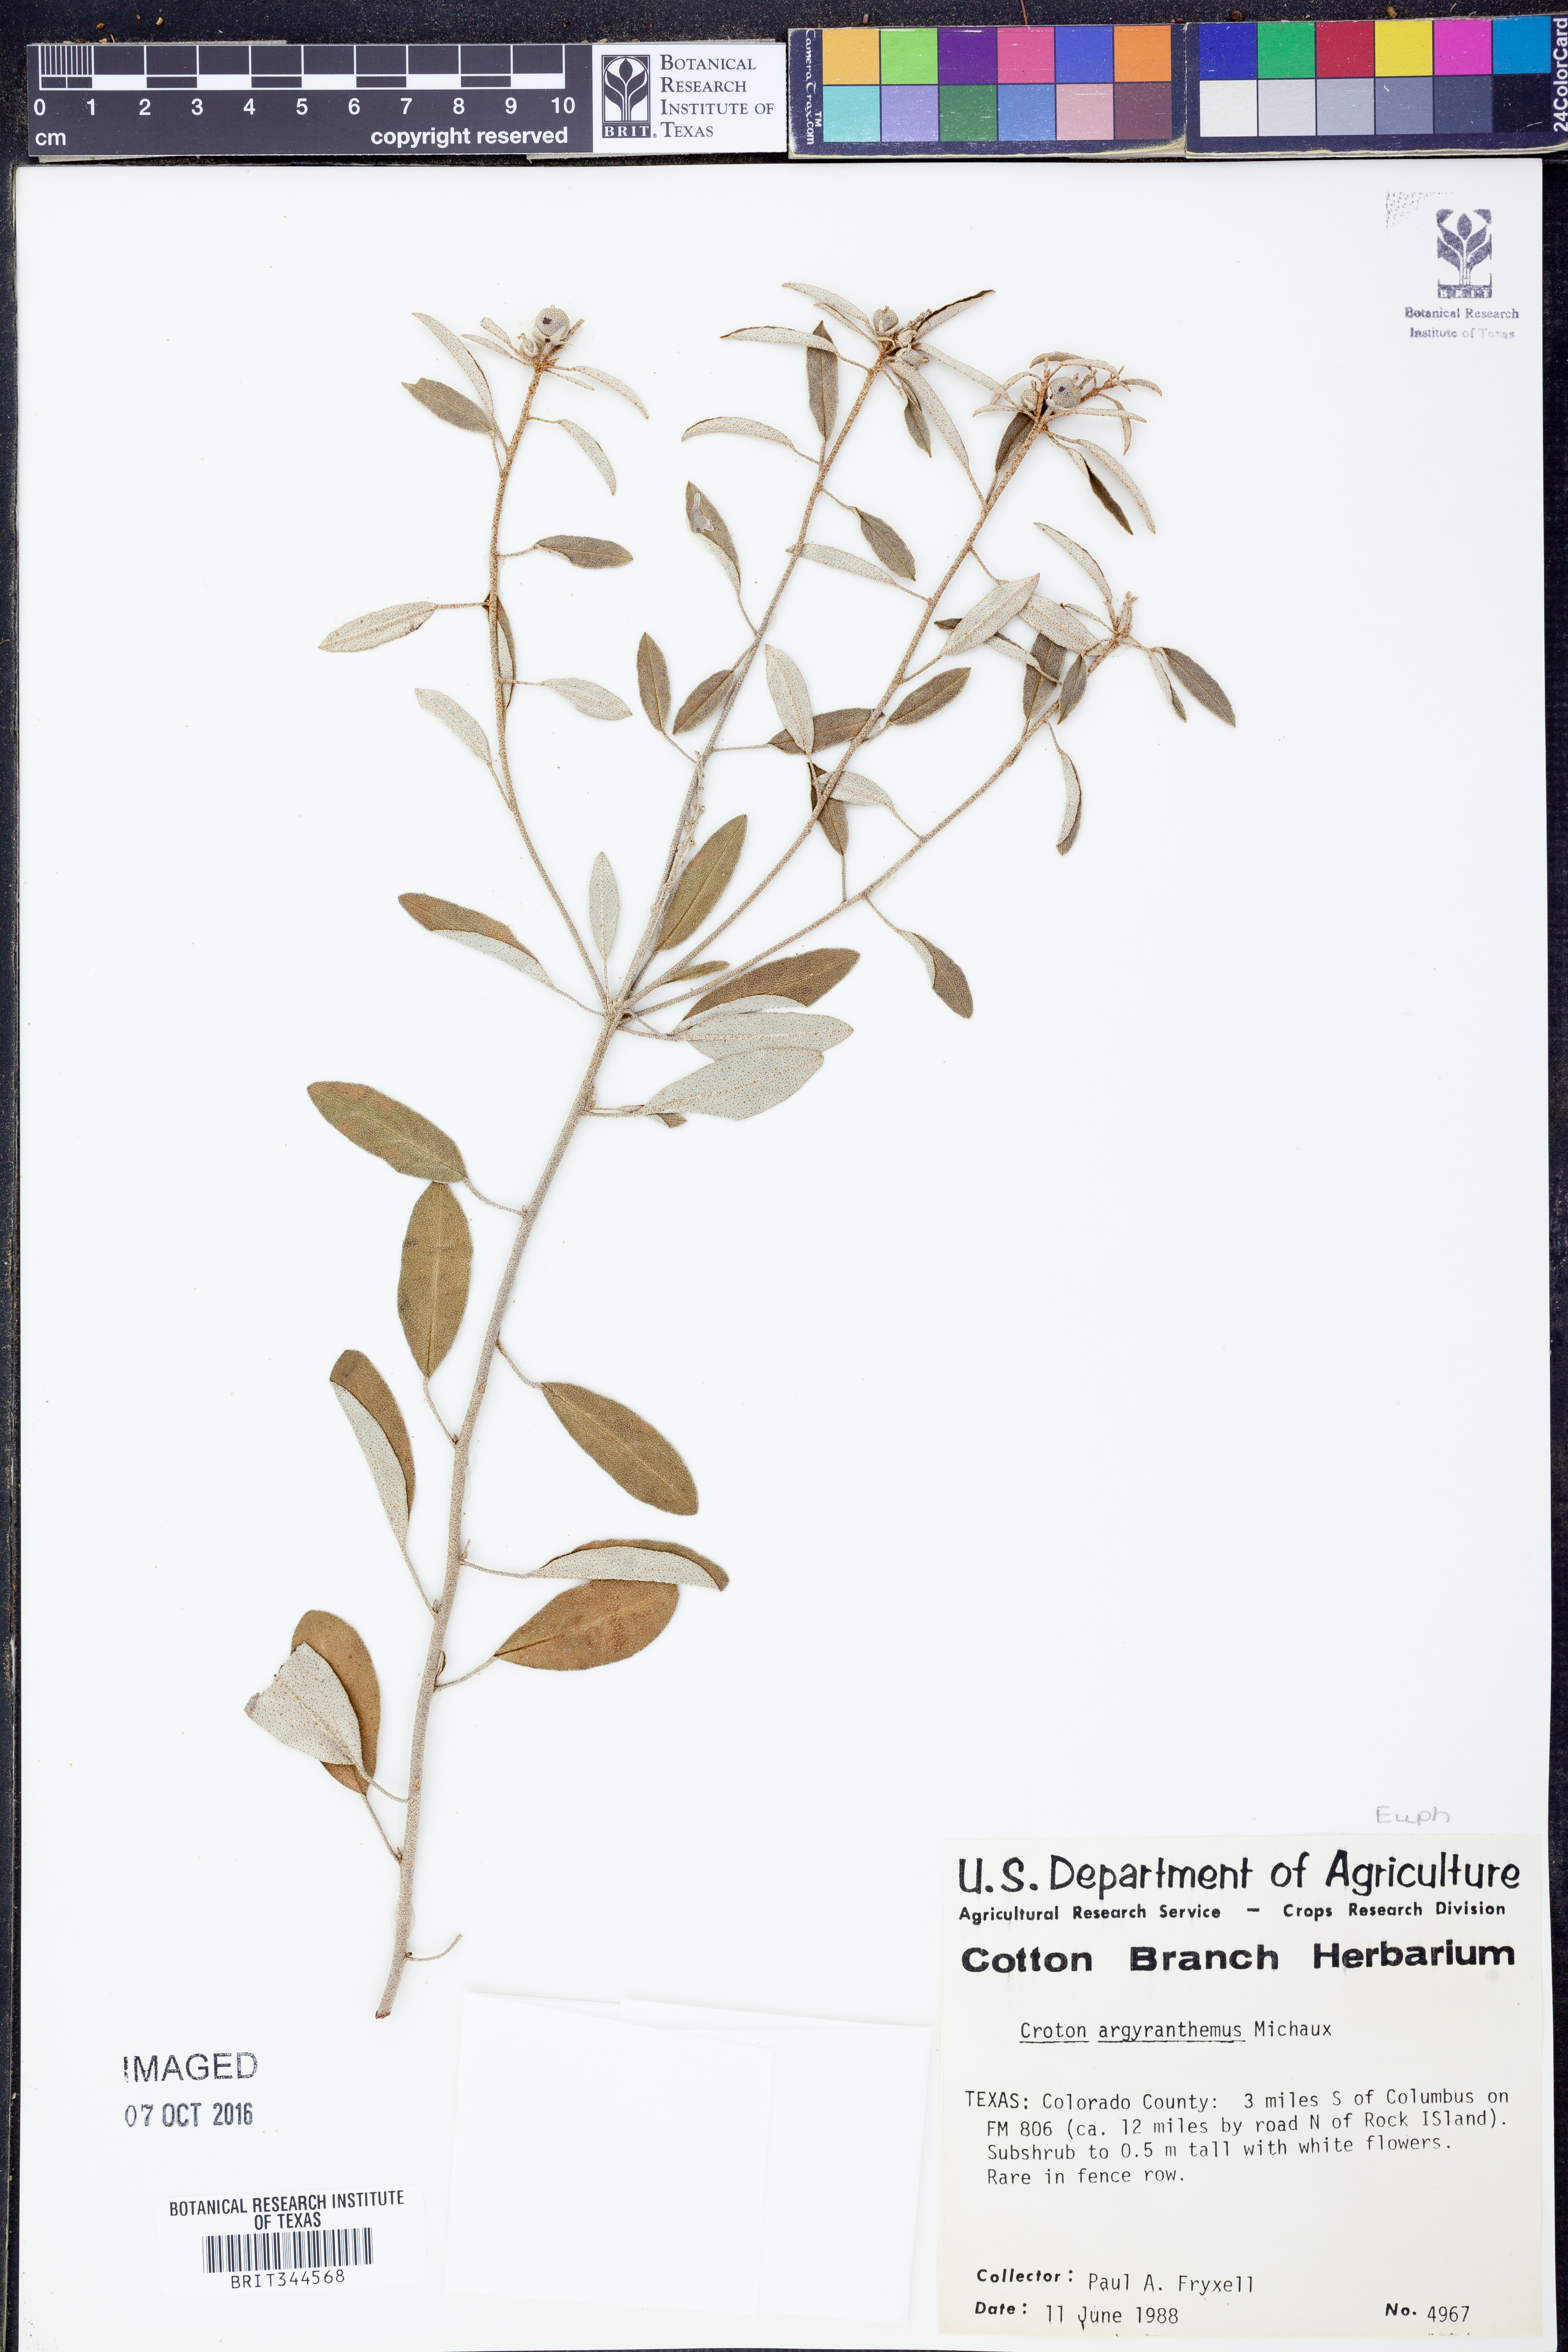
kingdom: Plantae
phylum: Tracheophyta
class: Magnoliopsida
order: Malpighiales
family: Euphorbiaceae
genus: Croton
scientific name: Croton argyranthemus
